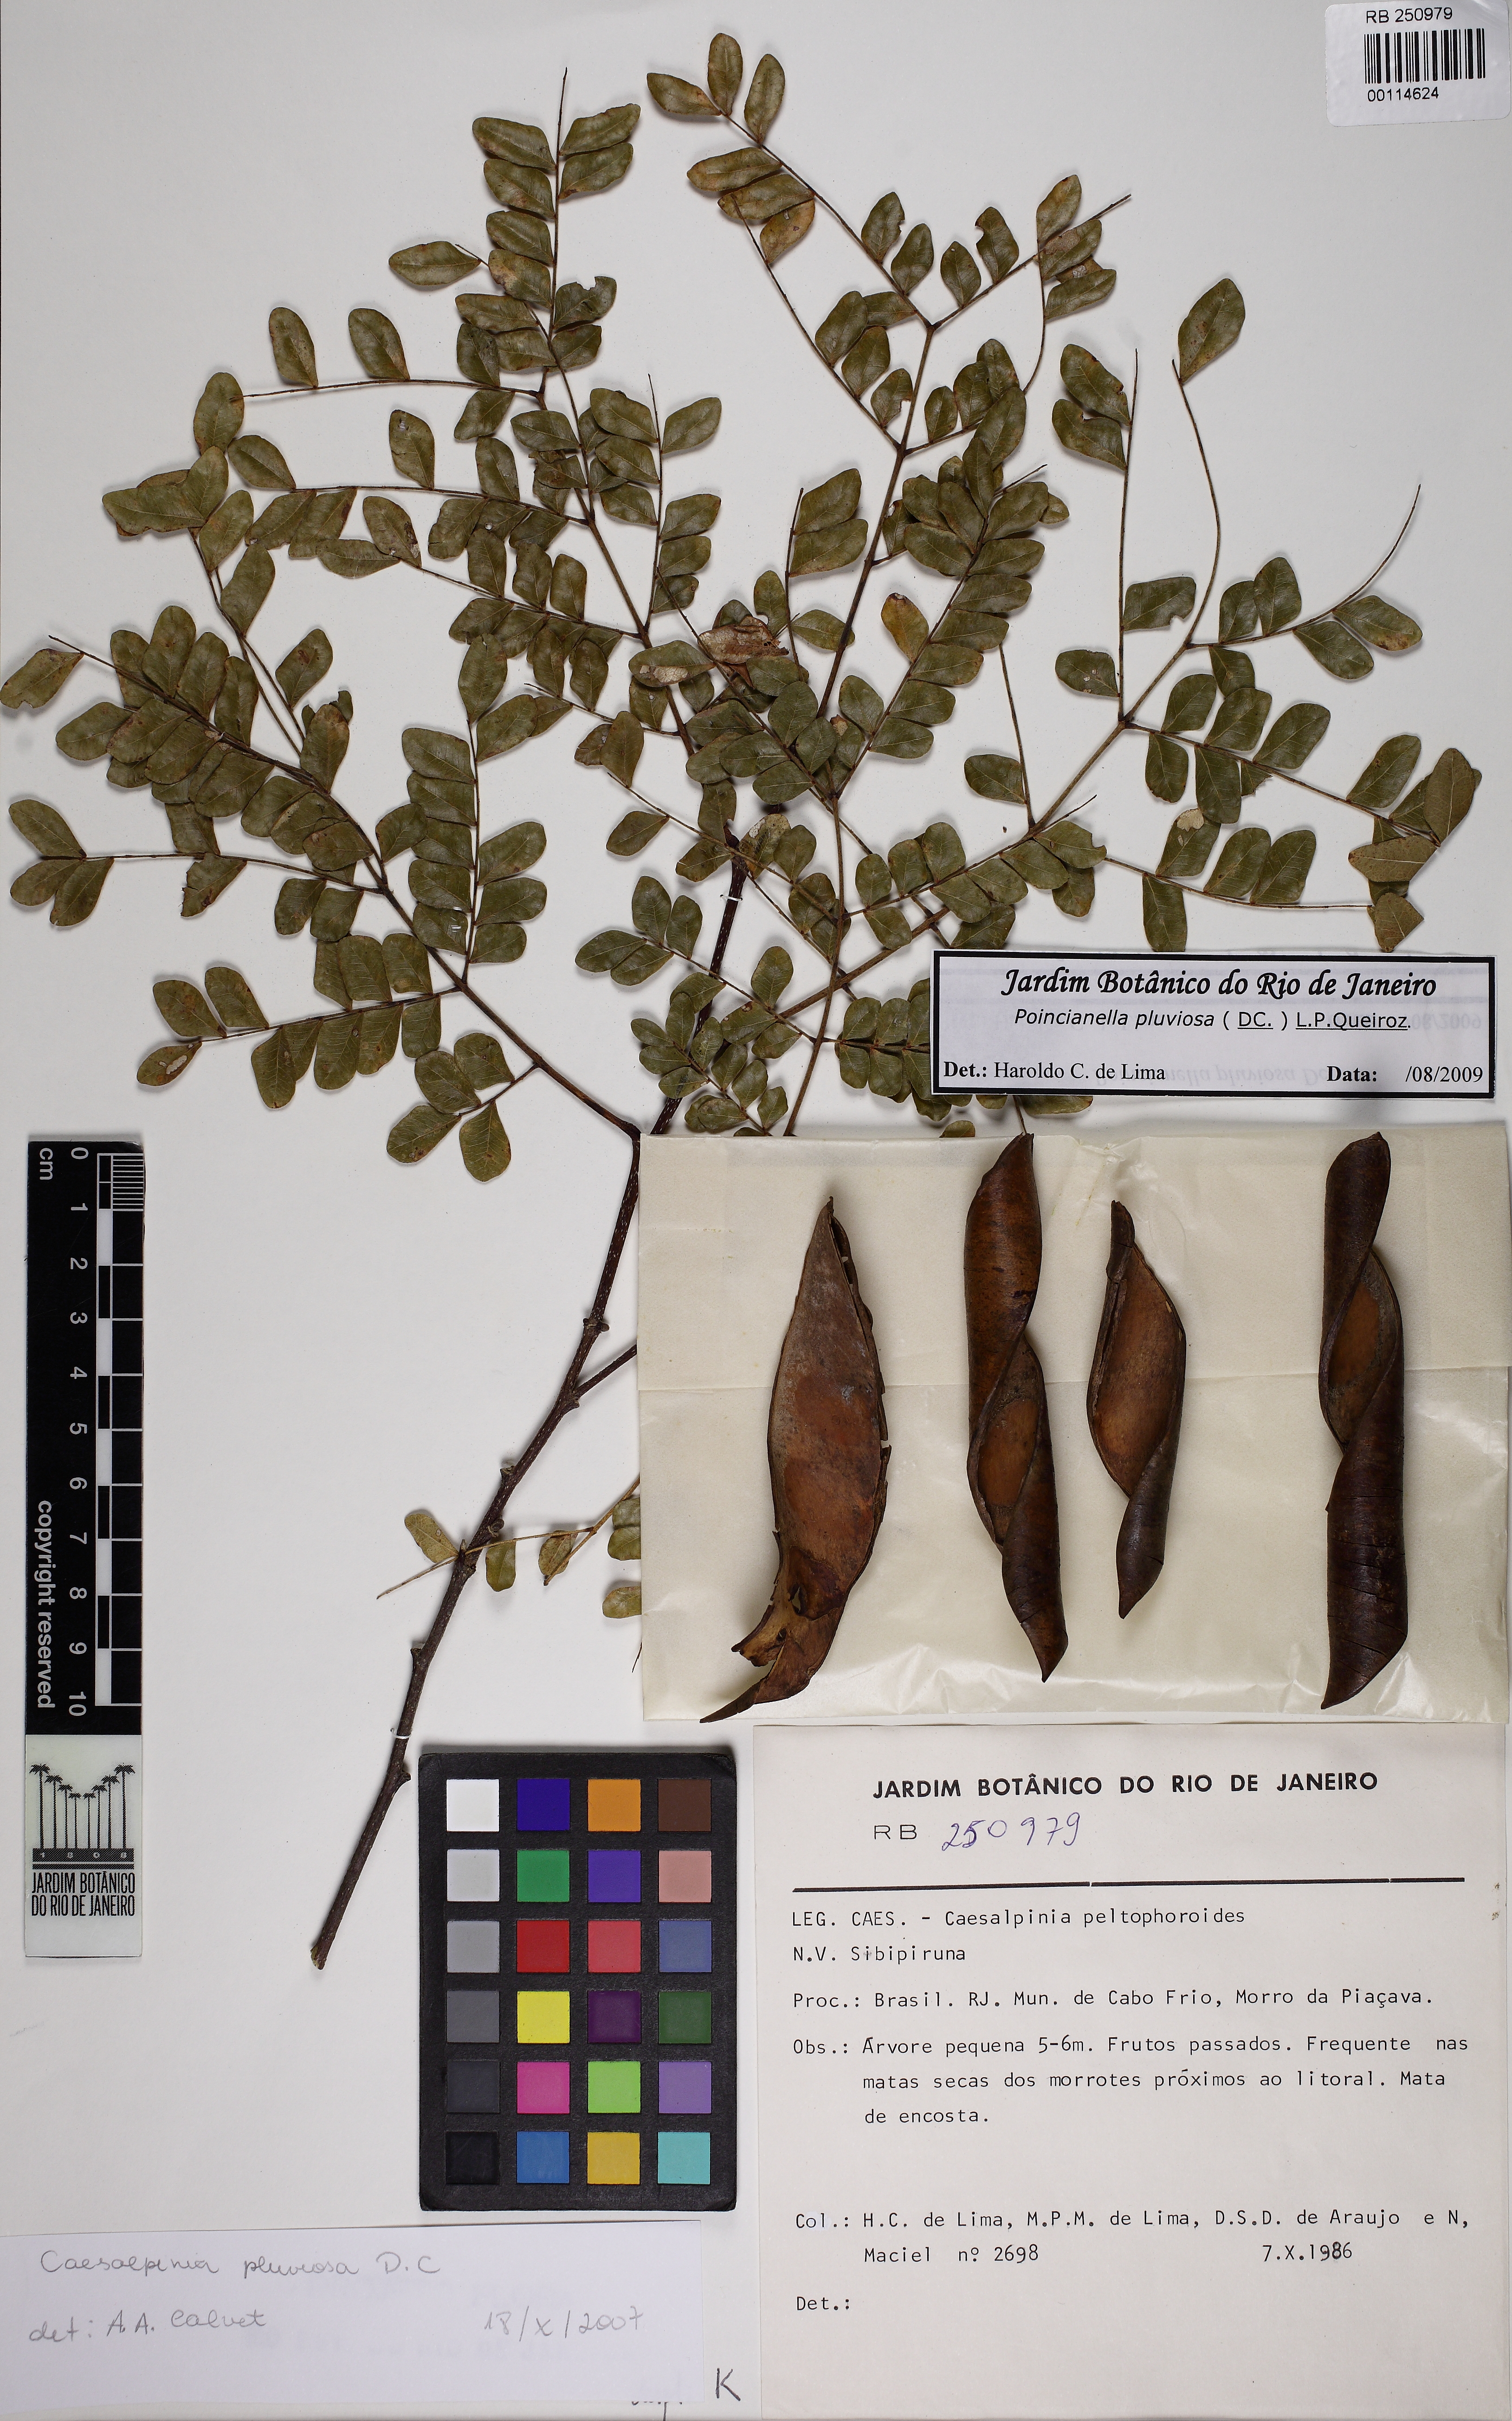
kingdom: Plantae
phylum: Tracheophyta
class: Magnoliopsida
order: Fabales
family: Fabaceae
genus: Cenostigma
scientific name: Cenostigma pluviosum
